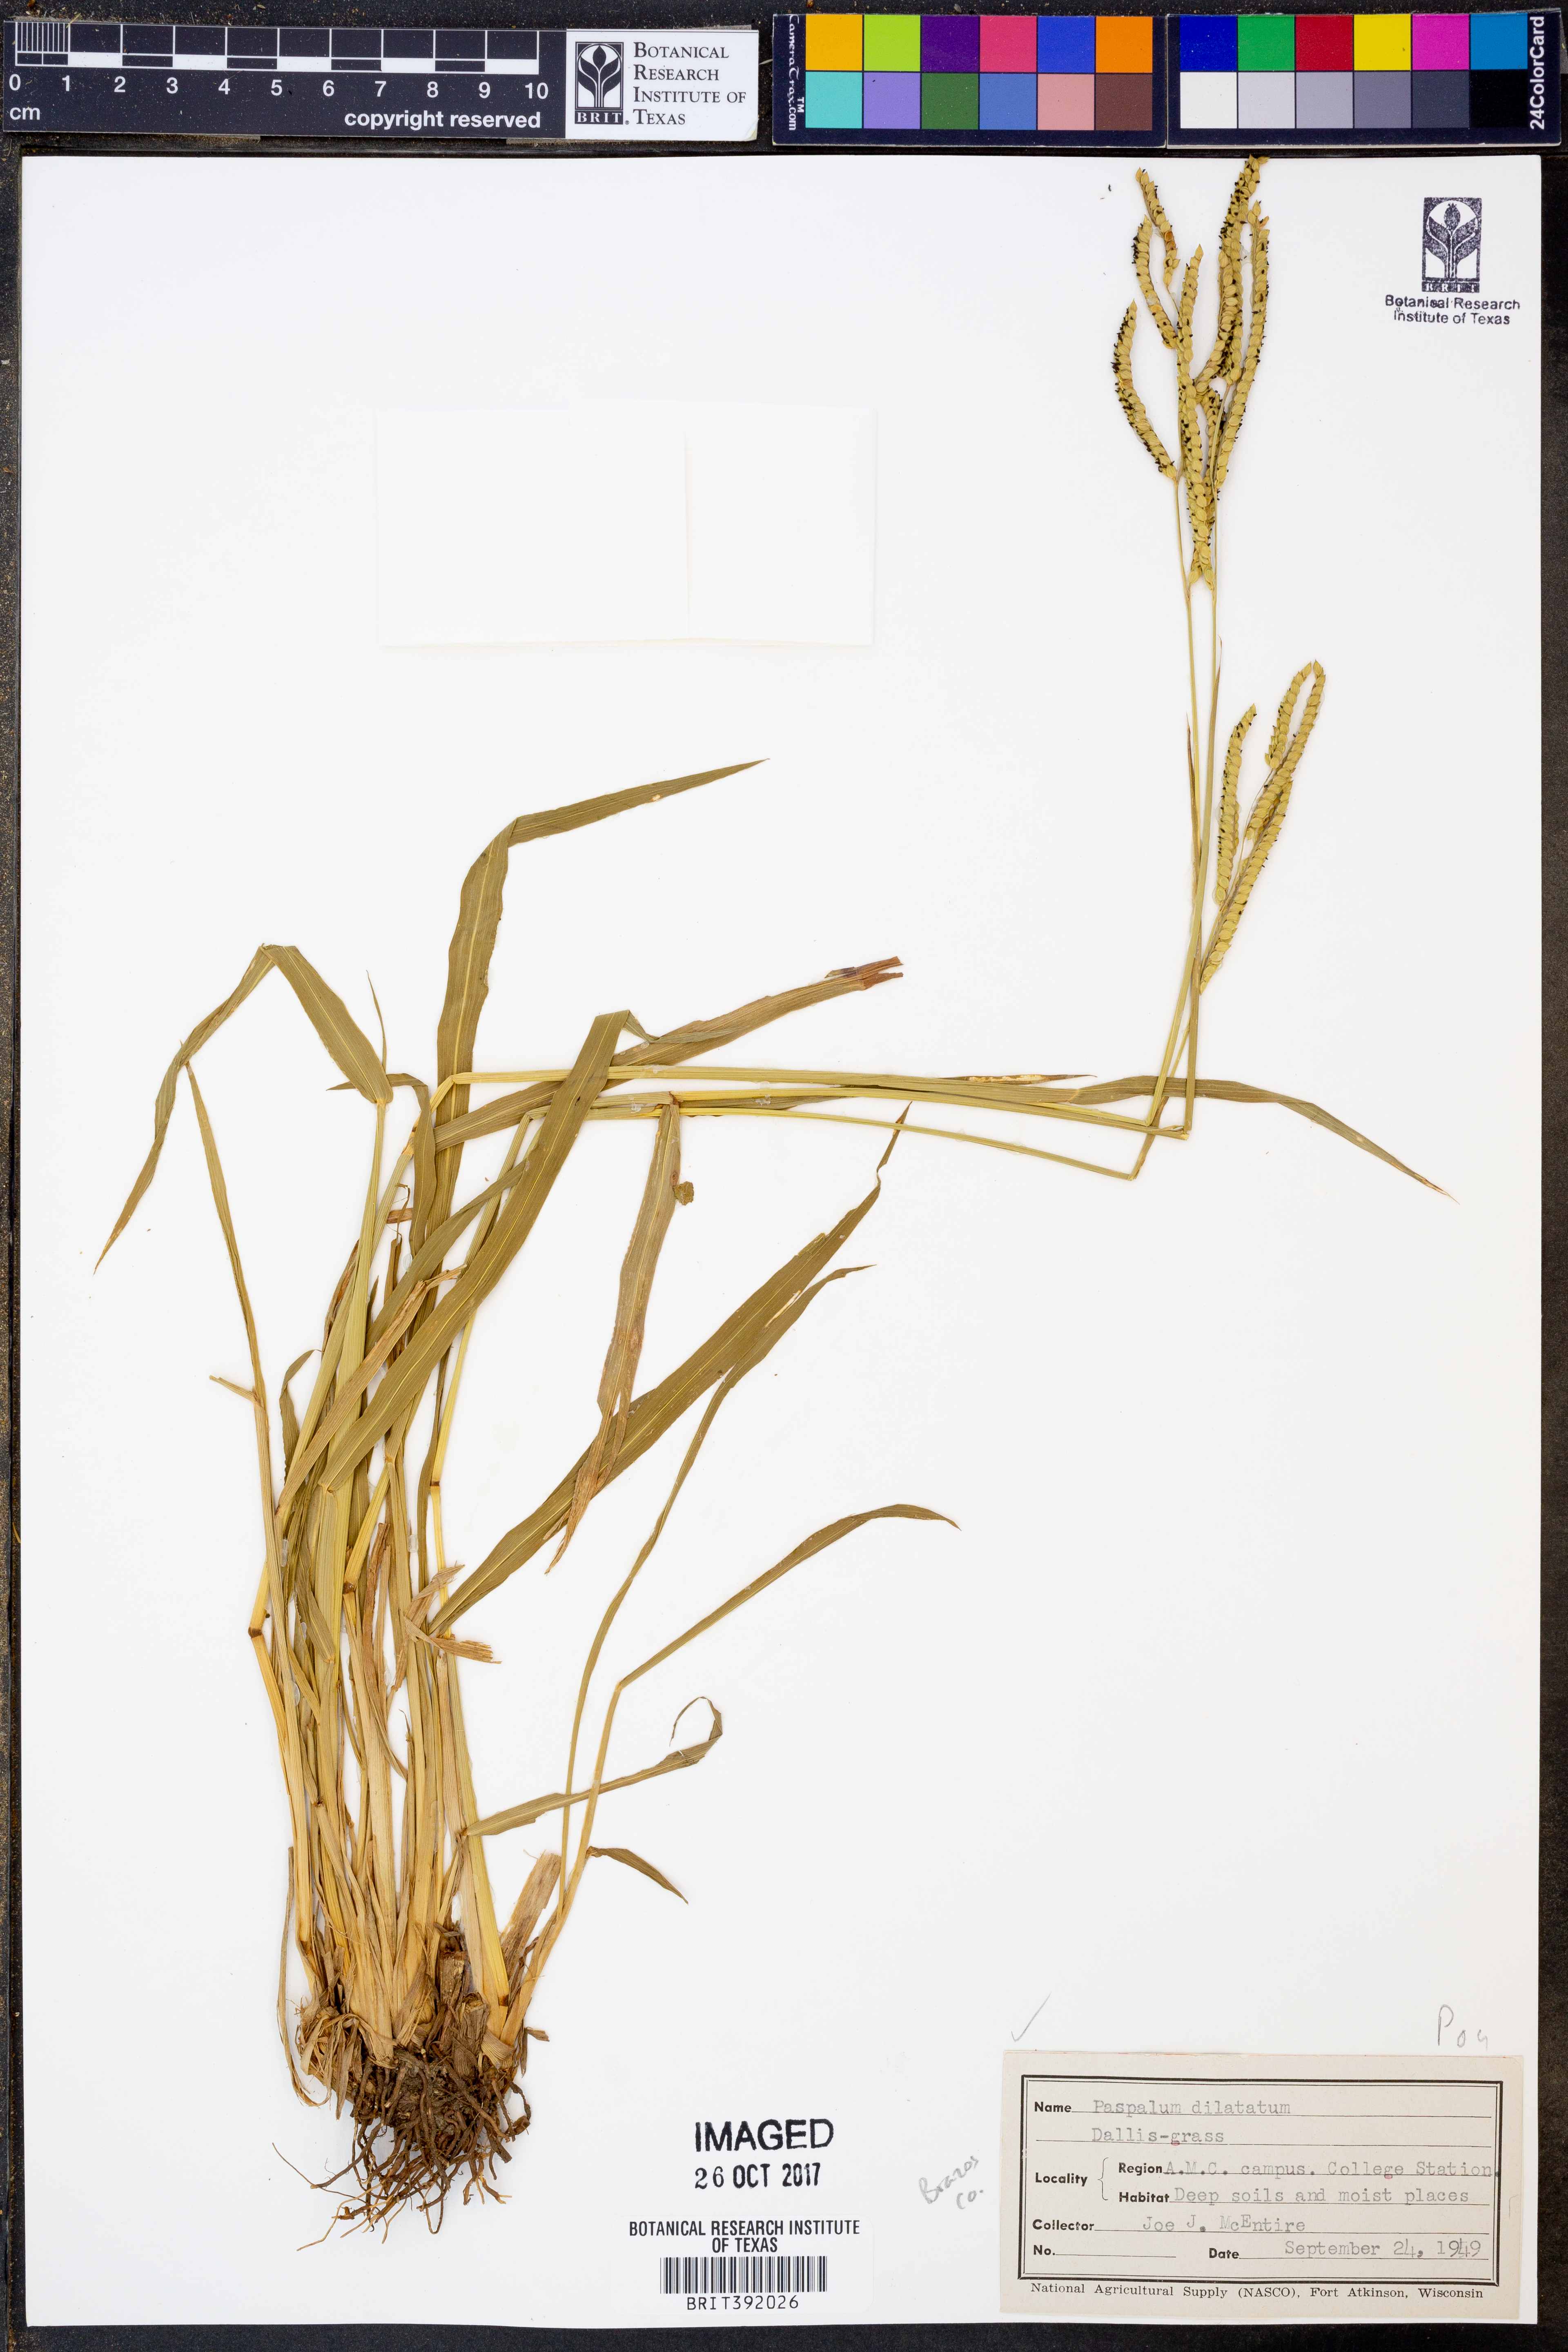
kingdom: Plantae
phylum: Tracheophyta
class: Liliopsida
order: Poales
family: Poaceae
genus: Paspalum
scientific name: Paspalum dilatatum
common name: Dallisgrass
